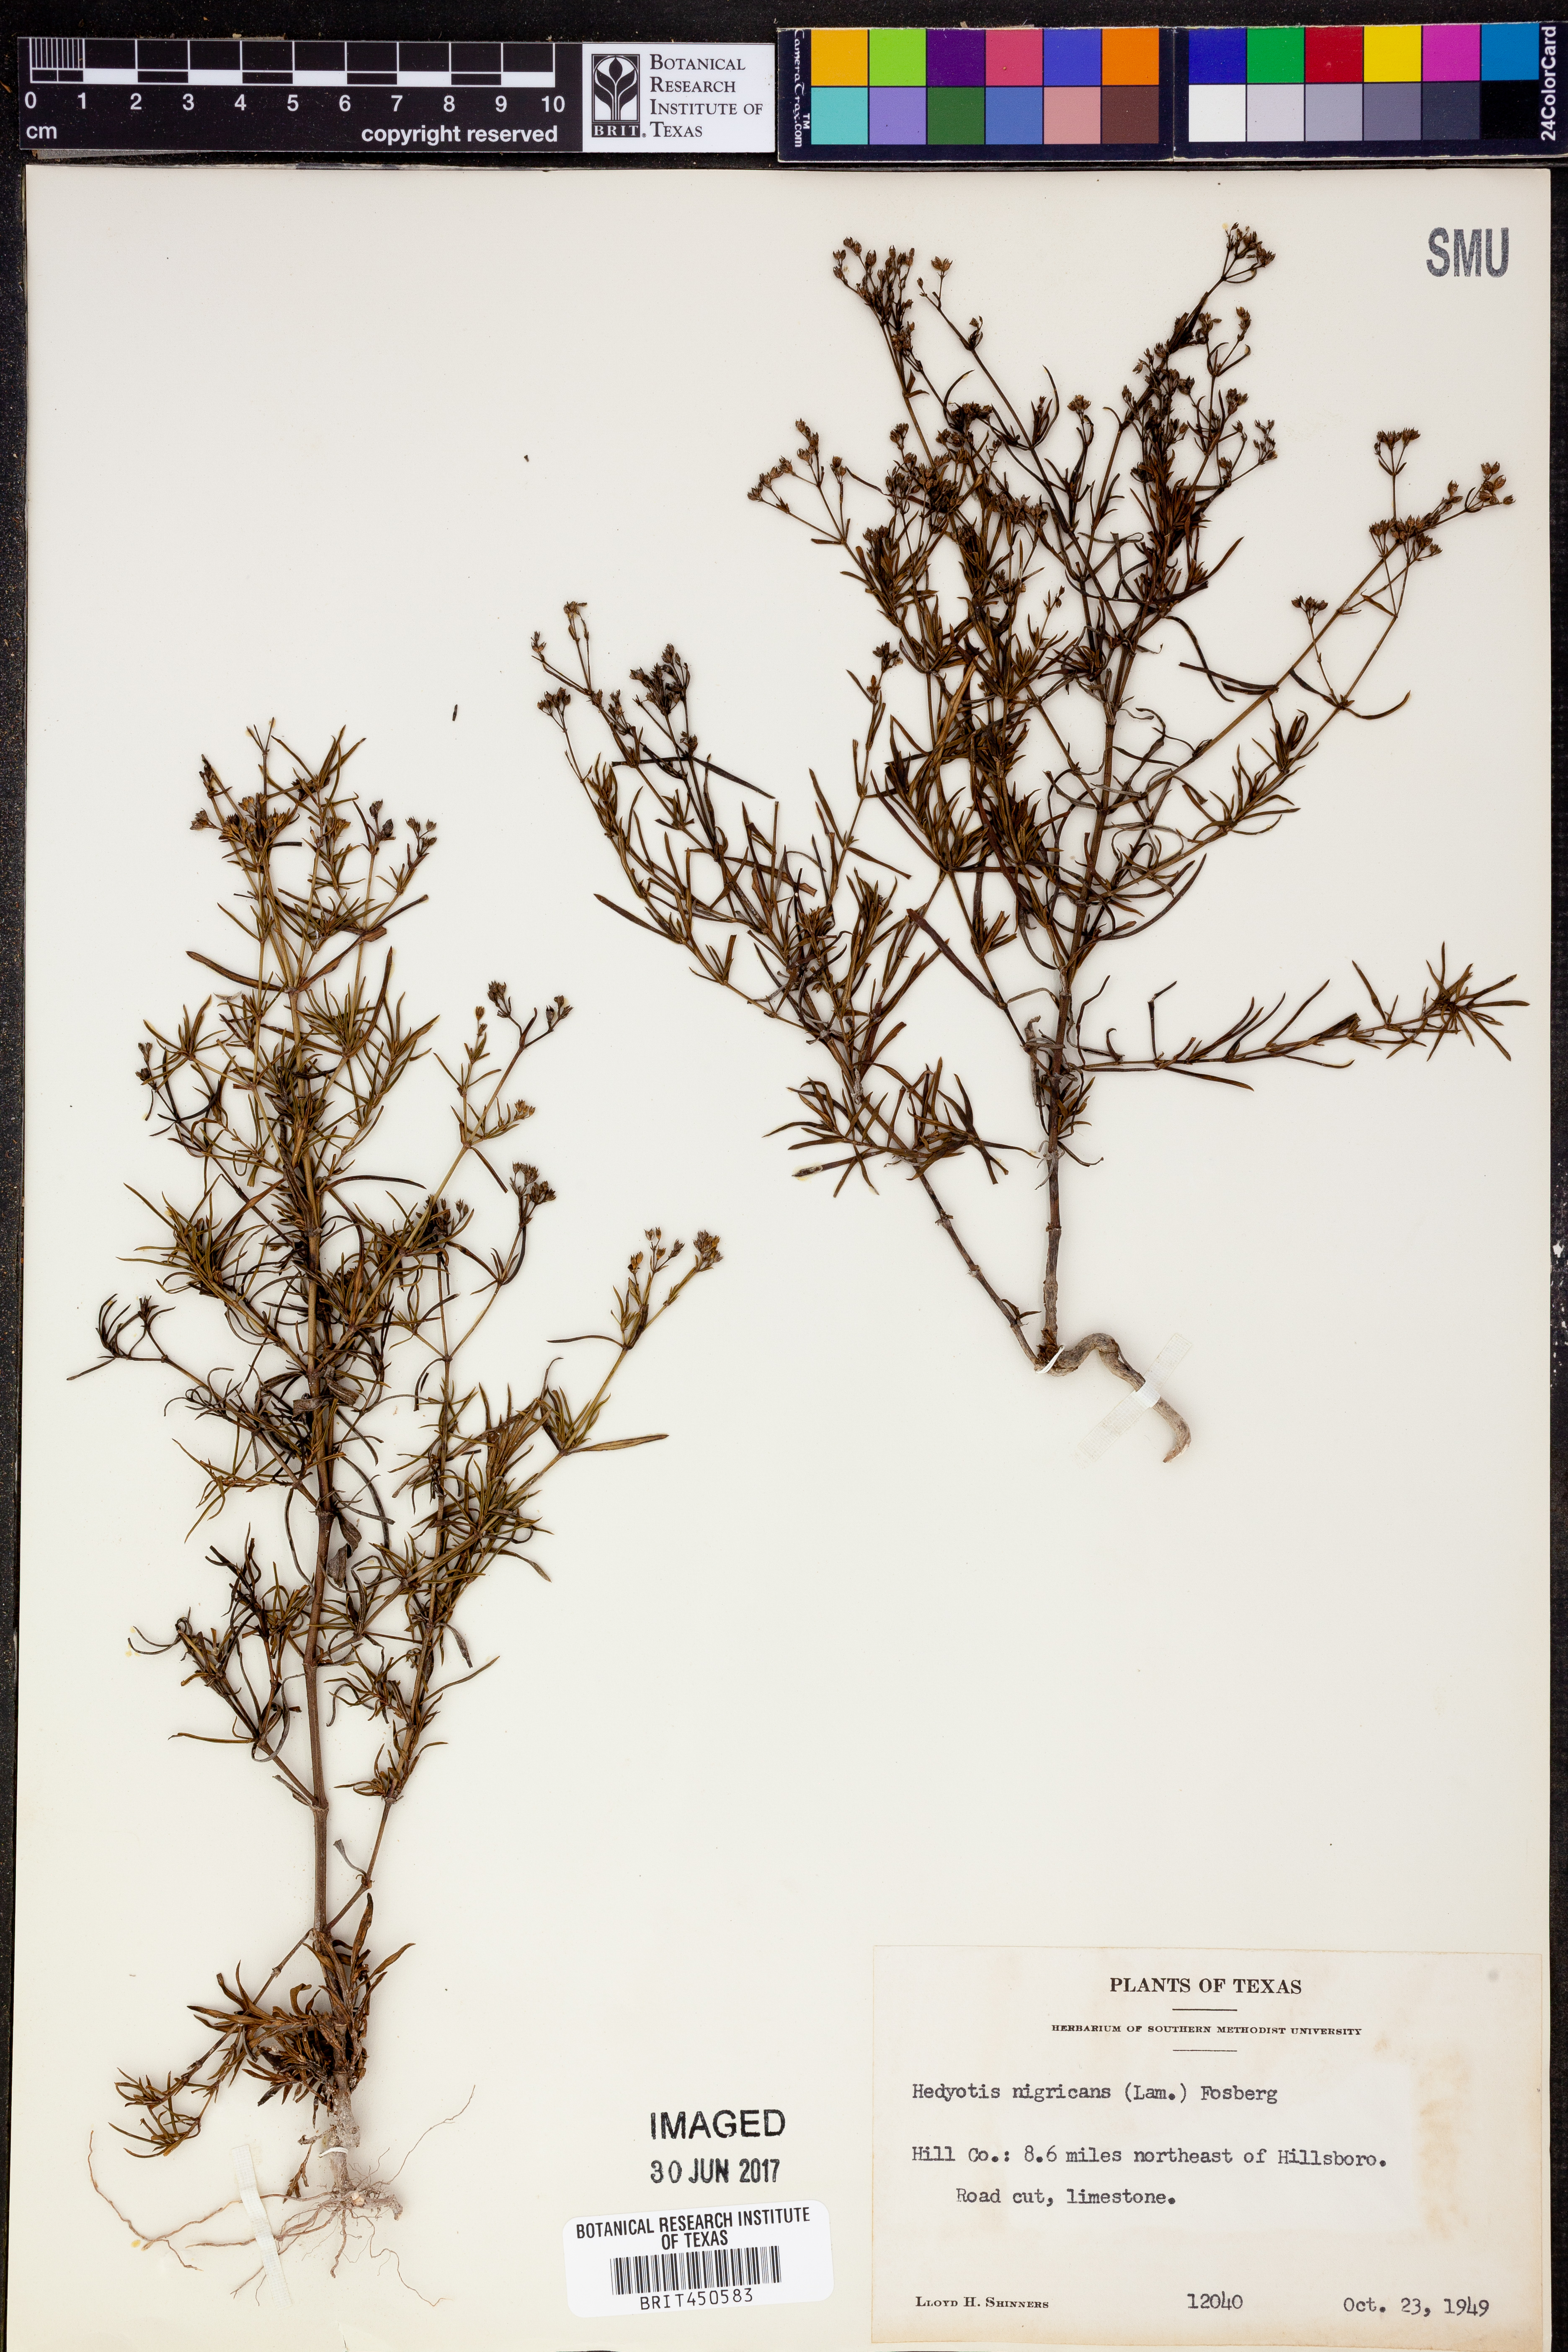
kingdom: Plantae
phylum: Tracheophyta
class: Magnoliopsida
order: Gentianales
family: Rubiaceae
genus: Stenaria
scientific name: Stenaria nigricans
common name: Diamondflowers
